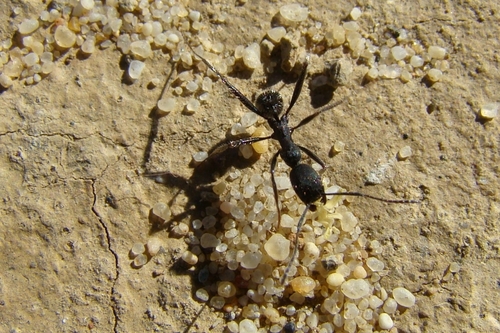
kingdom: Animalia
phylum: Arthropoda
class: Insecta
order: Hymenoptera
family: Formicidae
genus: Aphaenogaster
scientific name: Aphaenogaster senilis
